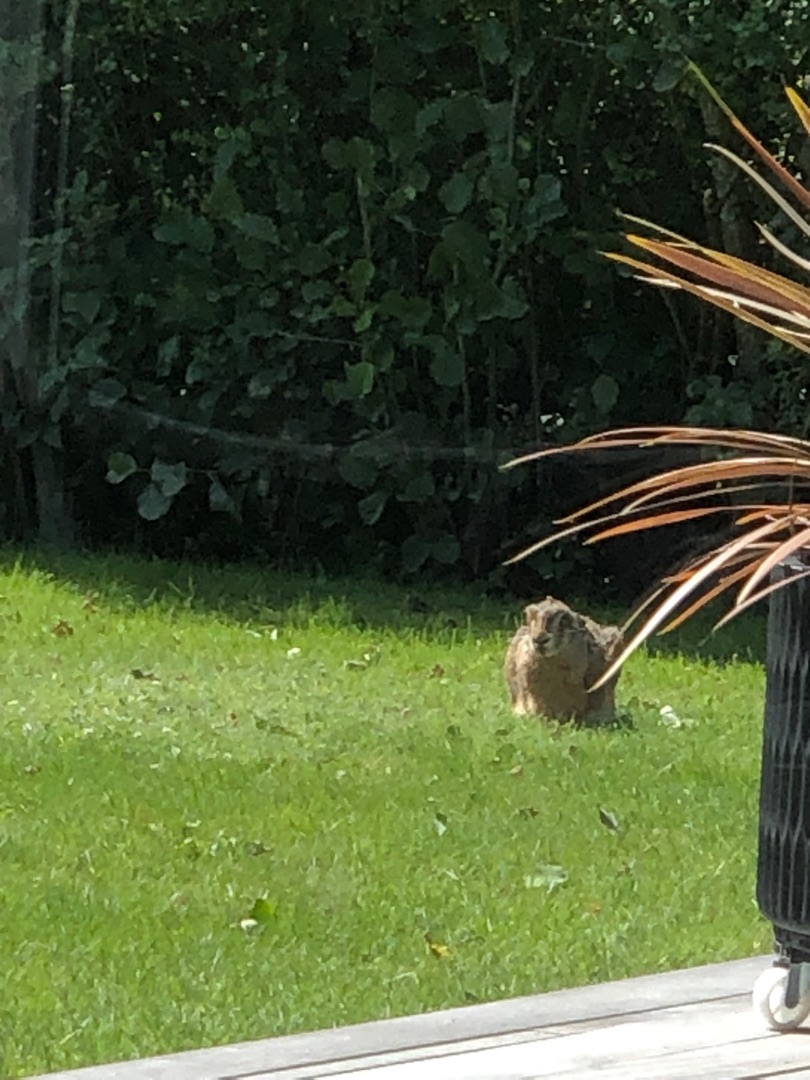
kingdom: Animalia
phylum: Chordata
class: Mammalia
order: Lagomorpha
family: Leporidae
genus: Lepus
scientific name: Lepus europaeus
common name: Hare
